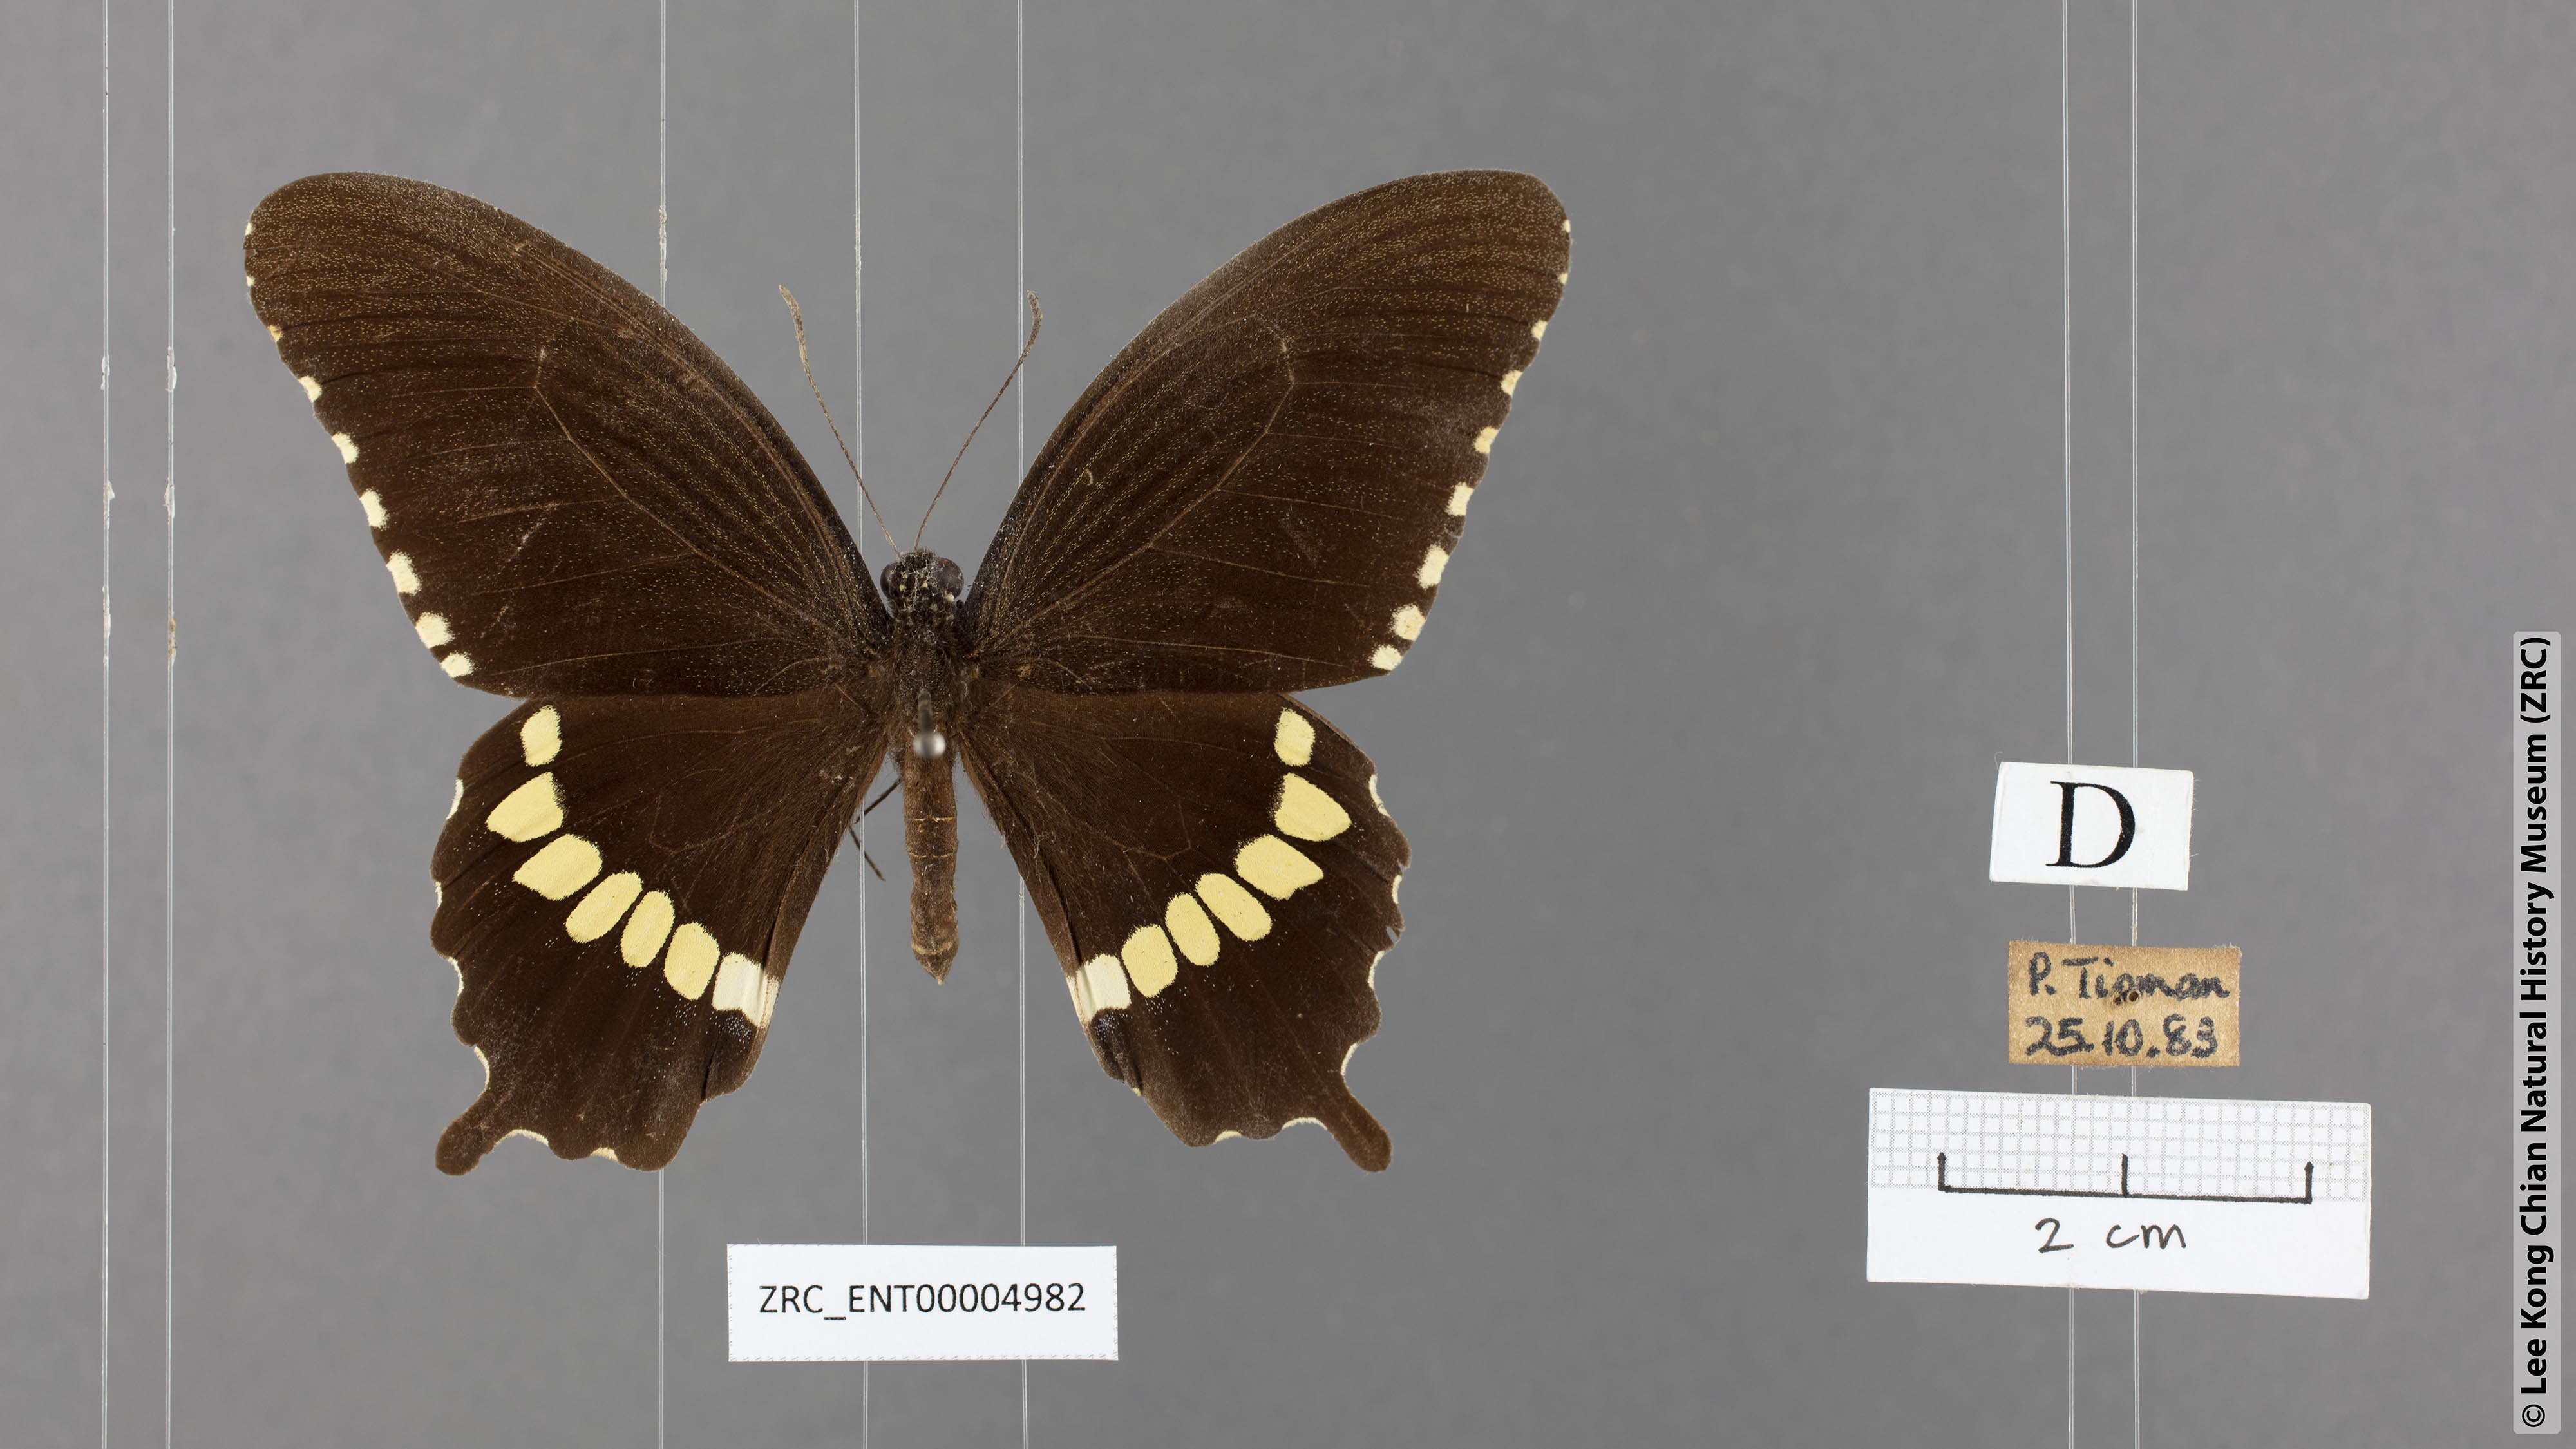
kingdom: Animalia
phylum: Arthropoda
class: Insecta
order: Lepidoptera
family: Papilionidae
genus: Papilio
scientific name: Papilio polytes
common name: Common mormon
